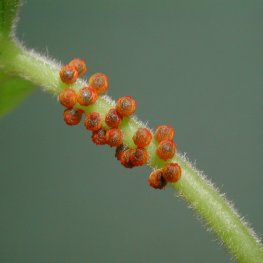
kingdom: Animalia
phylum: Arthropoda
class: Insecta
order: Lepidoptera
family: Papilionidae
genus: Battus
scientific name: Battus philenor
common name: Pipevine Swallowtail
